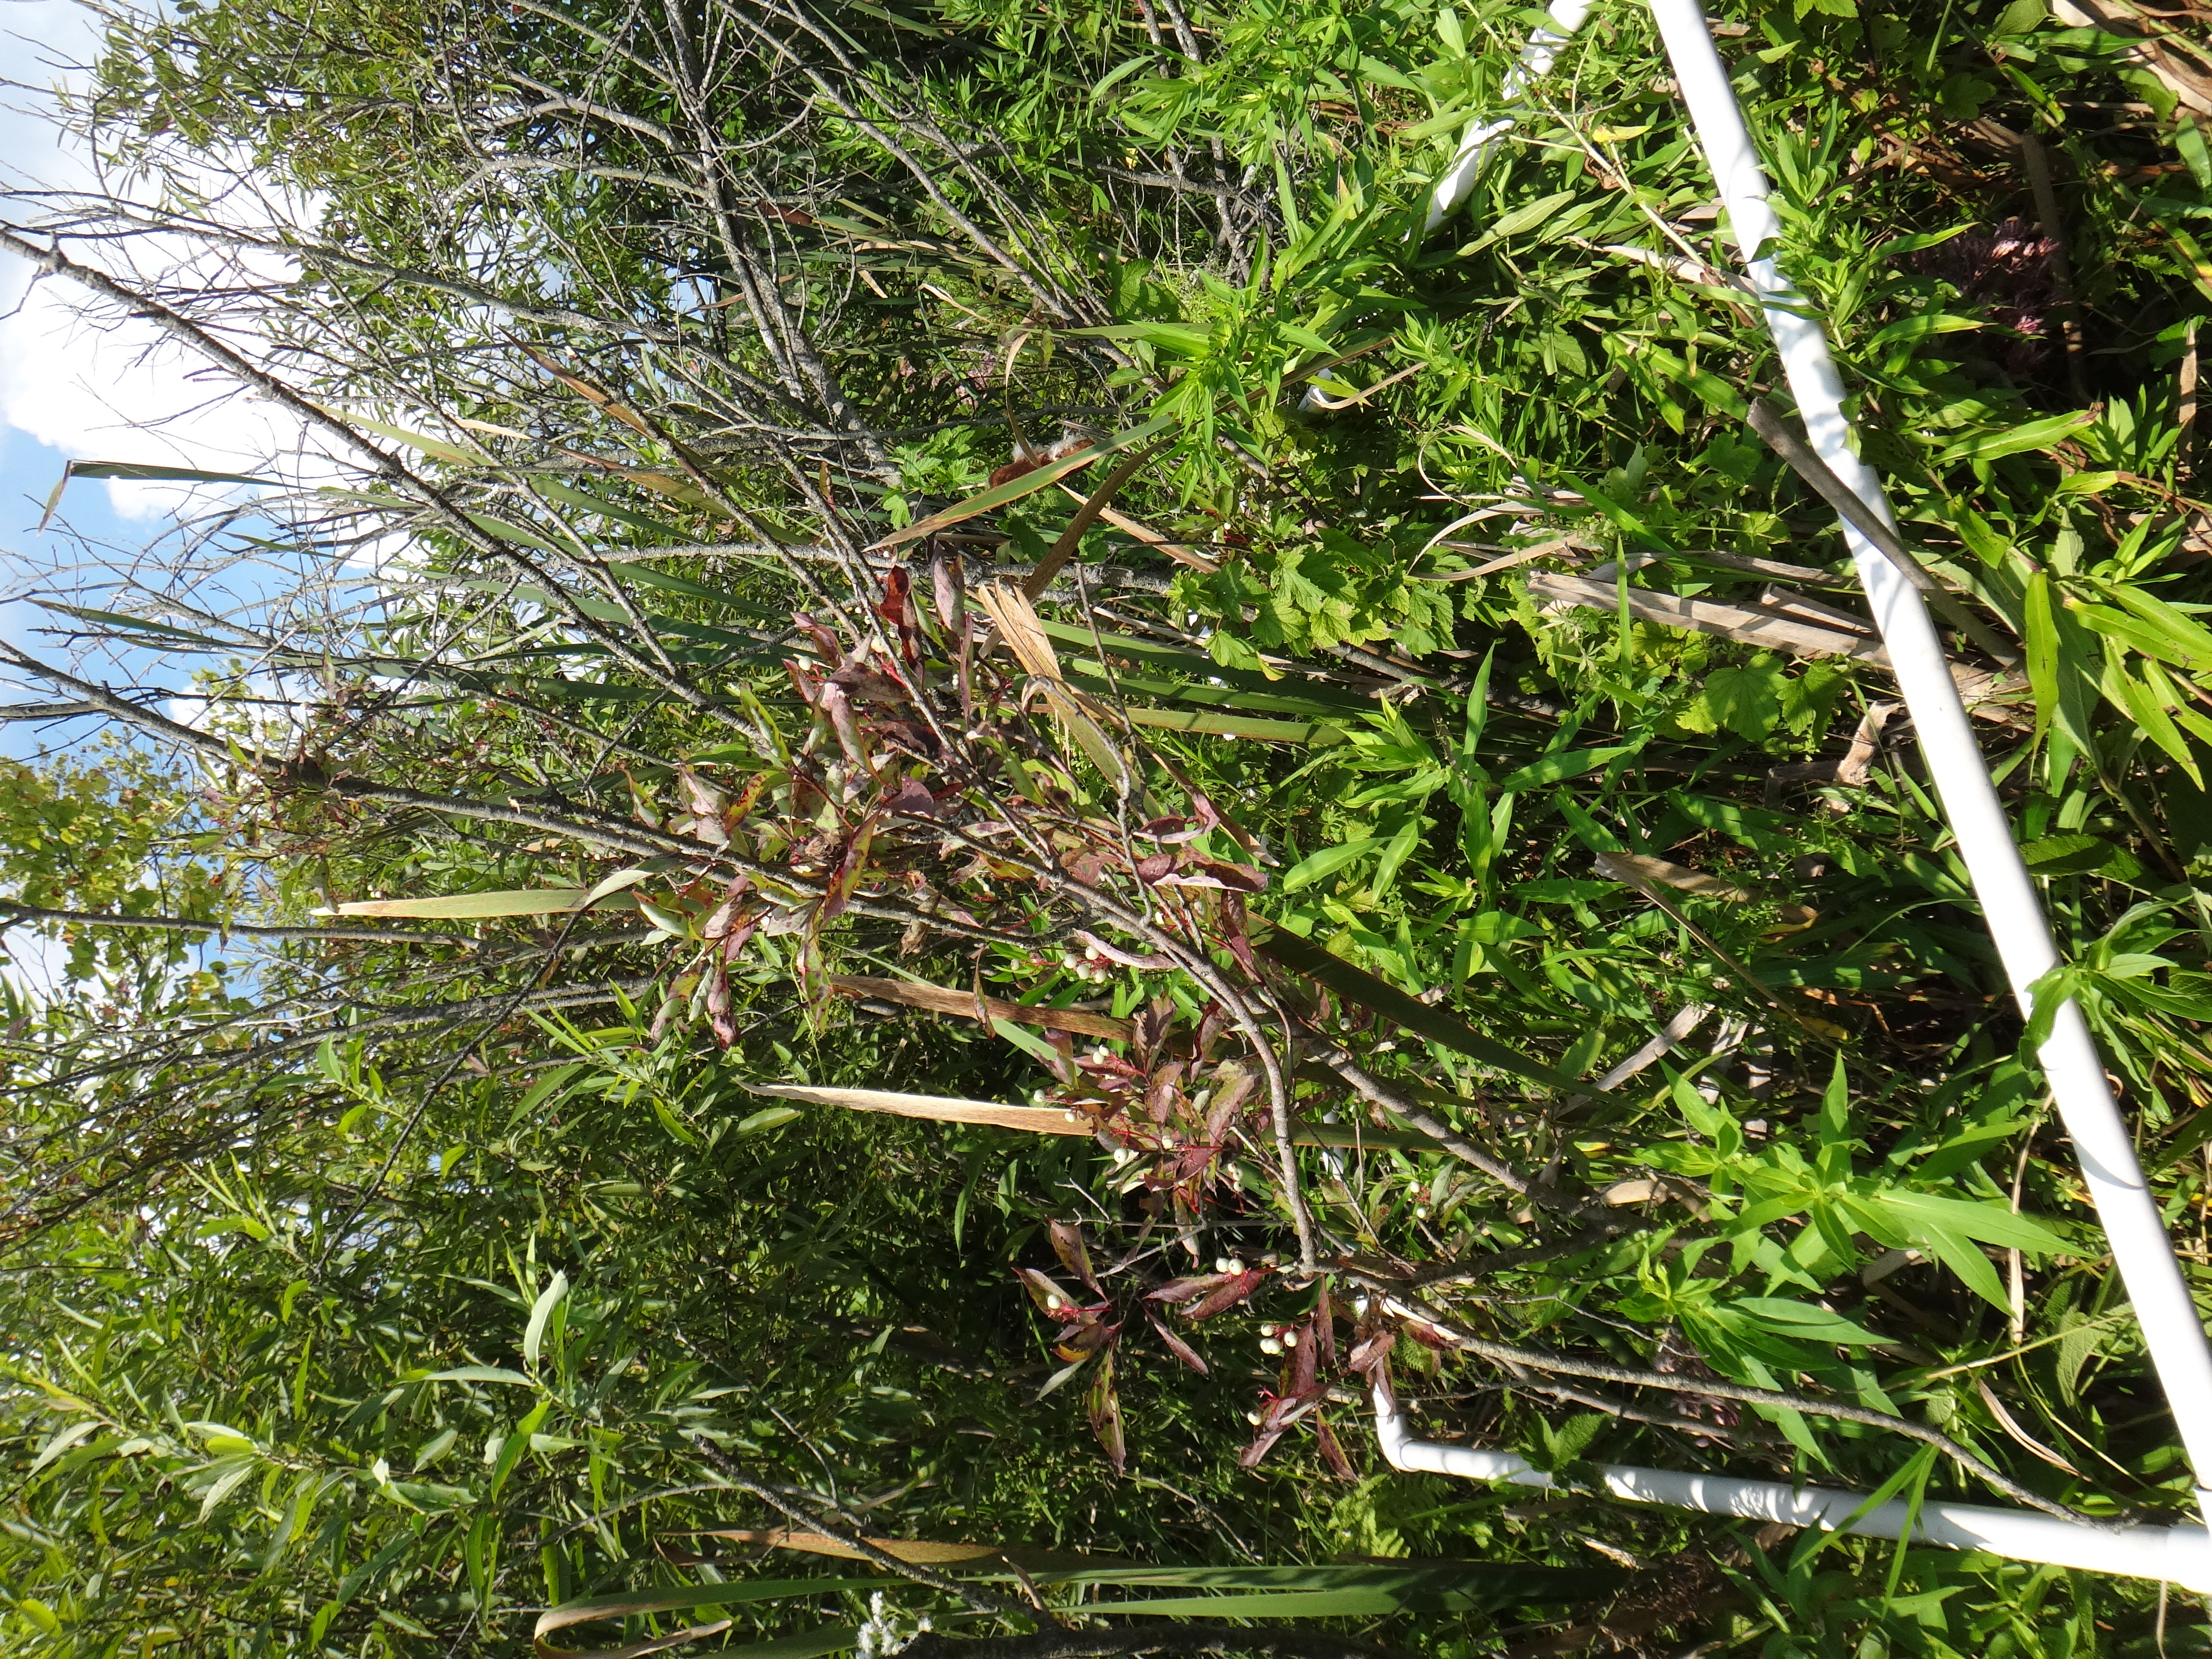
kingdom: Plantae
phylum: Tracheophyta
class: Magnoliopsida
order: Asterales
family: Asteraceae
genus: Eutrochium
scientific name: Eutrochium maculatum
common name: Spotted joe pye weed
